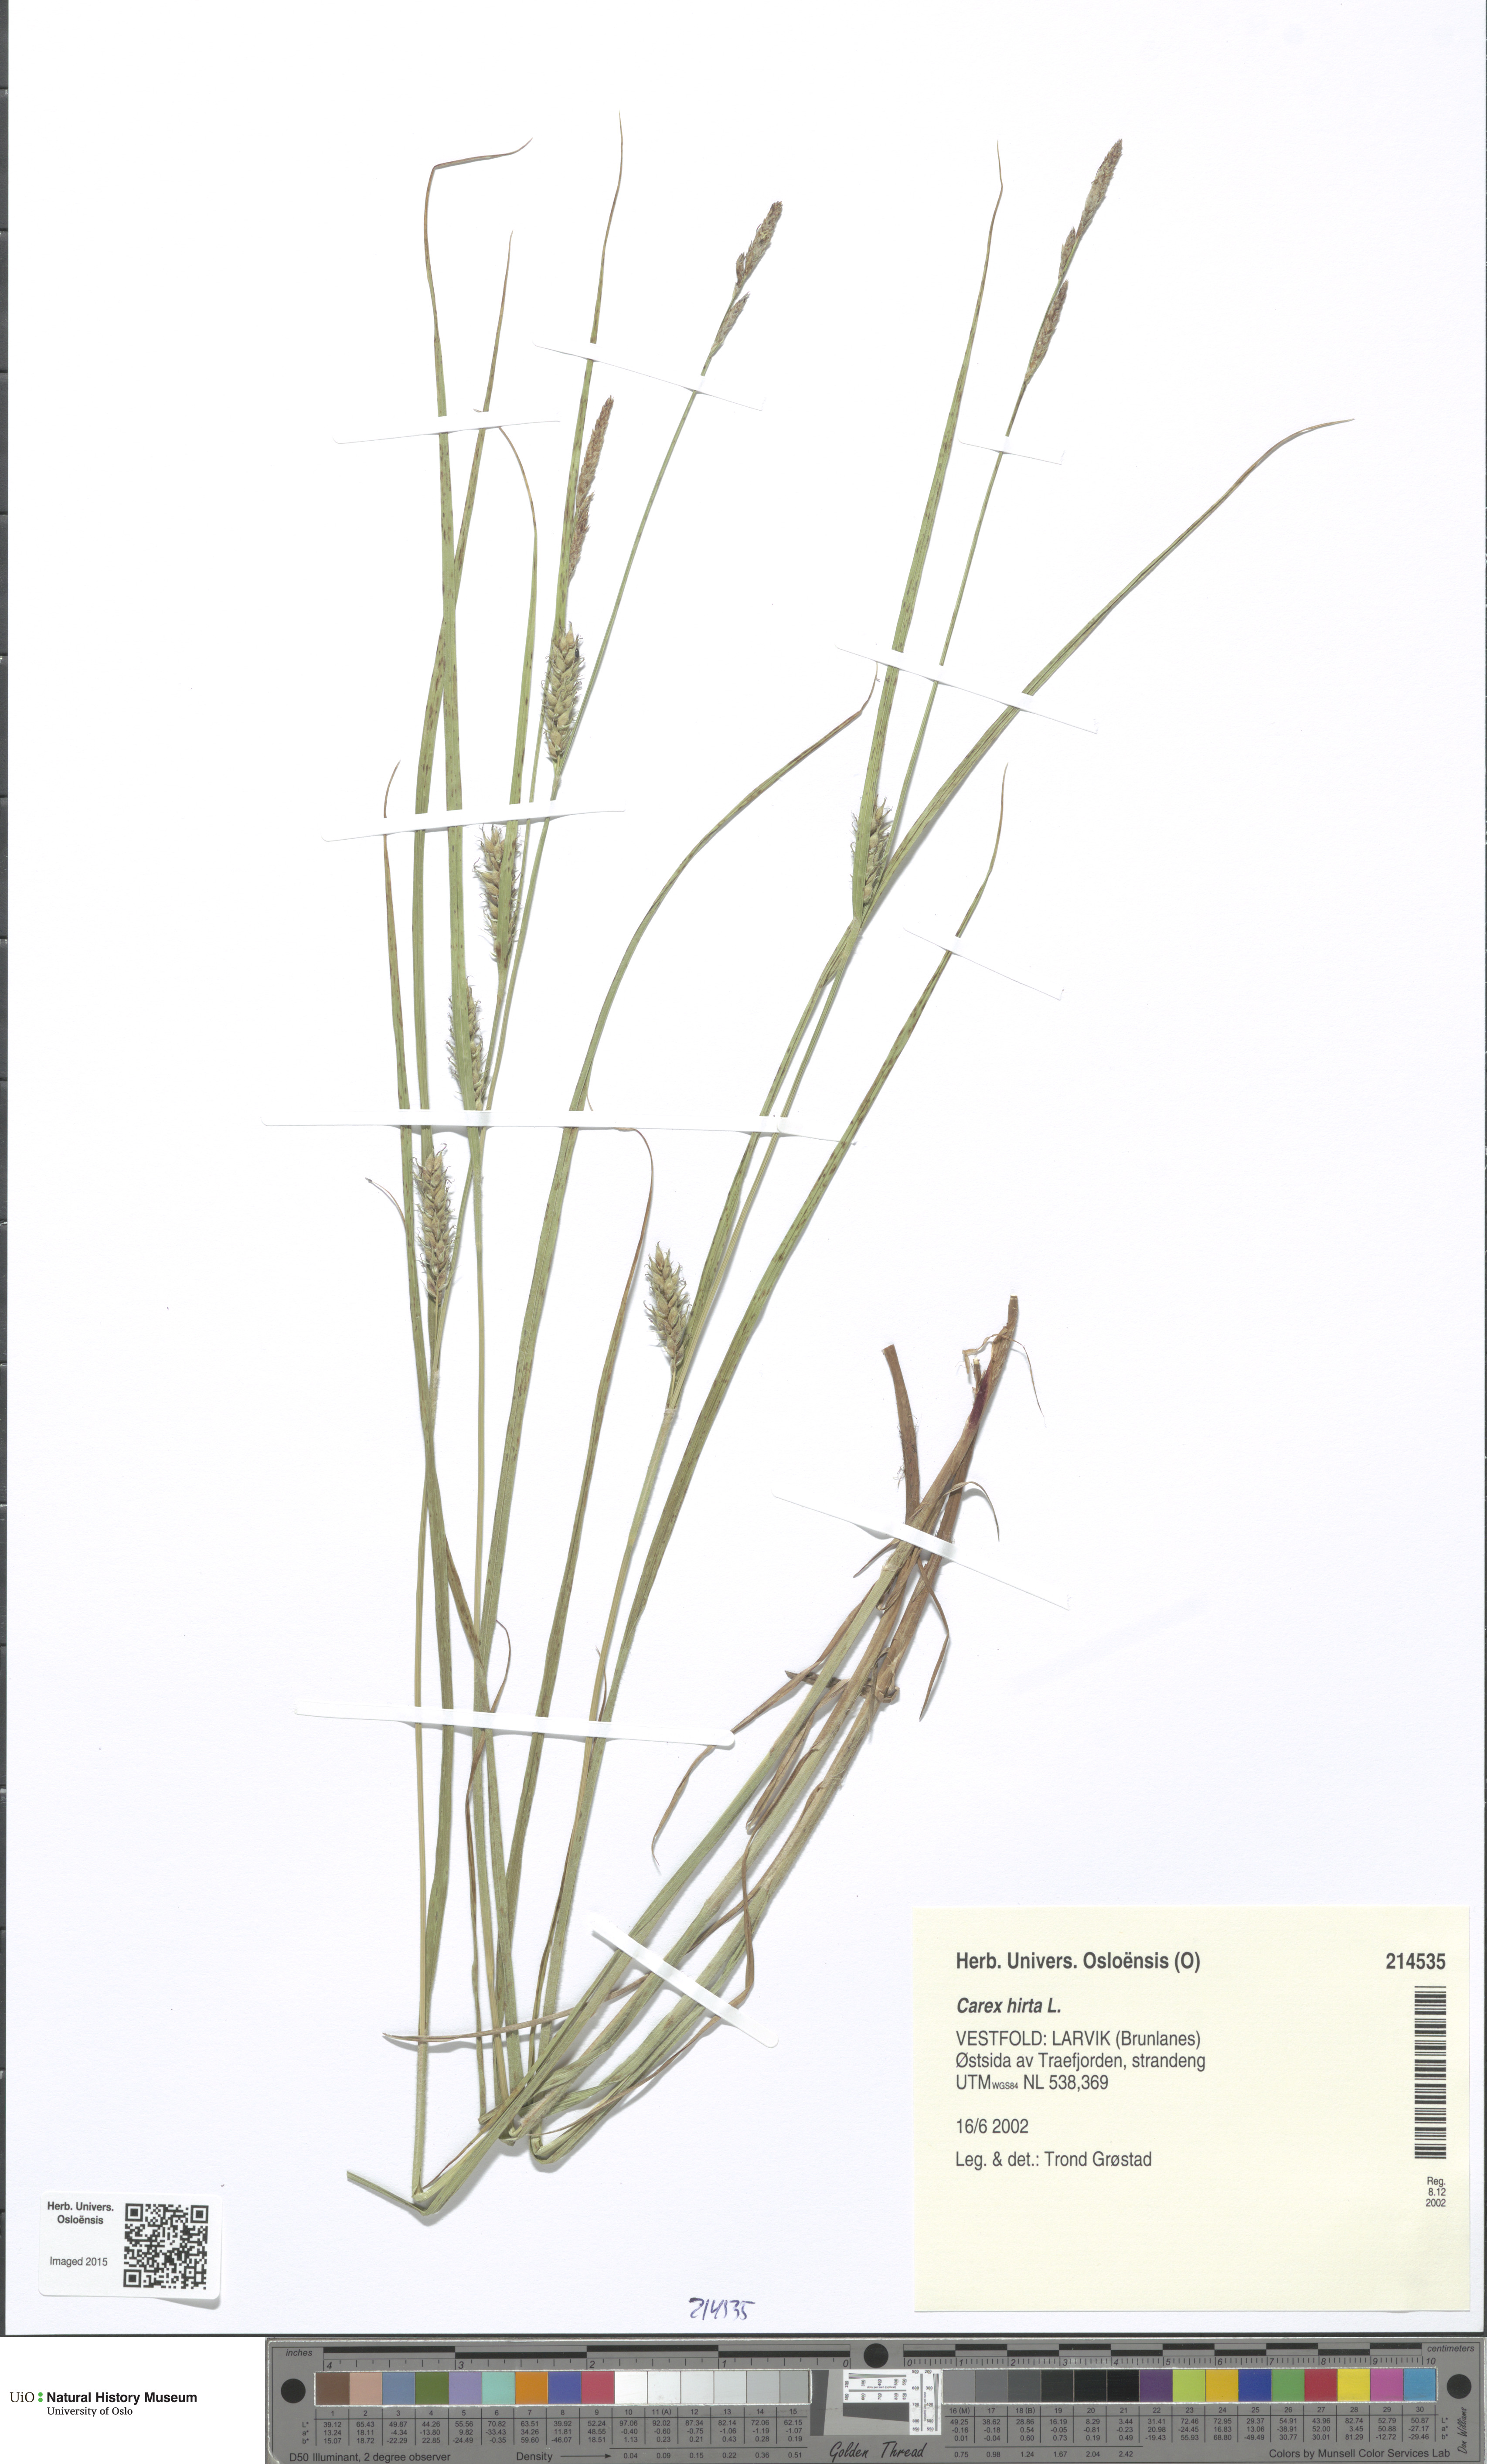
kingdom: Plantae
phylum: Tracheophyta
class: Liliopsida
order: Poales
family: Cyperaceae
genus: Carex
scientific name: Carex hirta
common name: Hairy sedge
